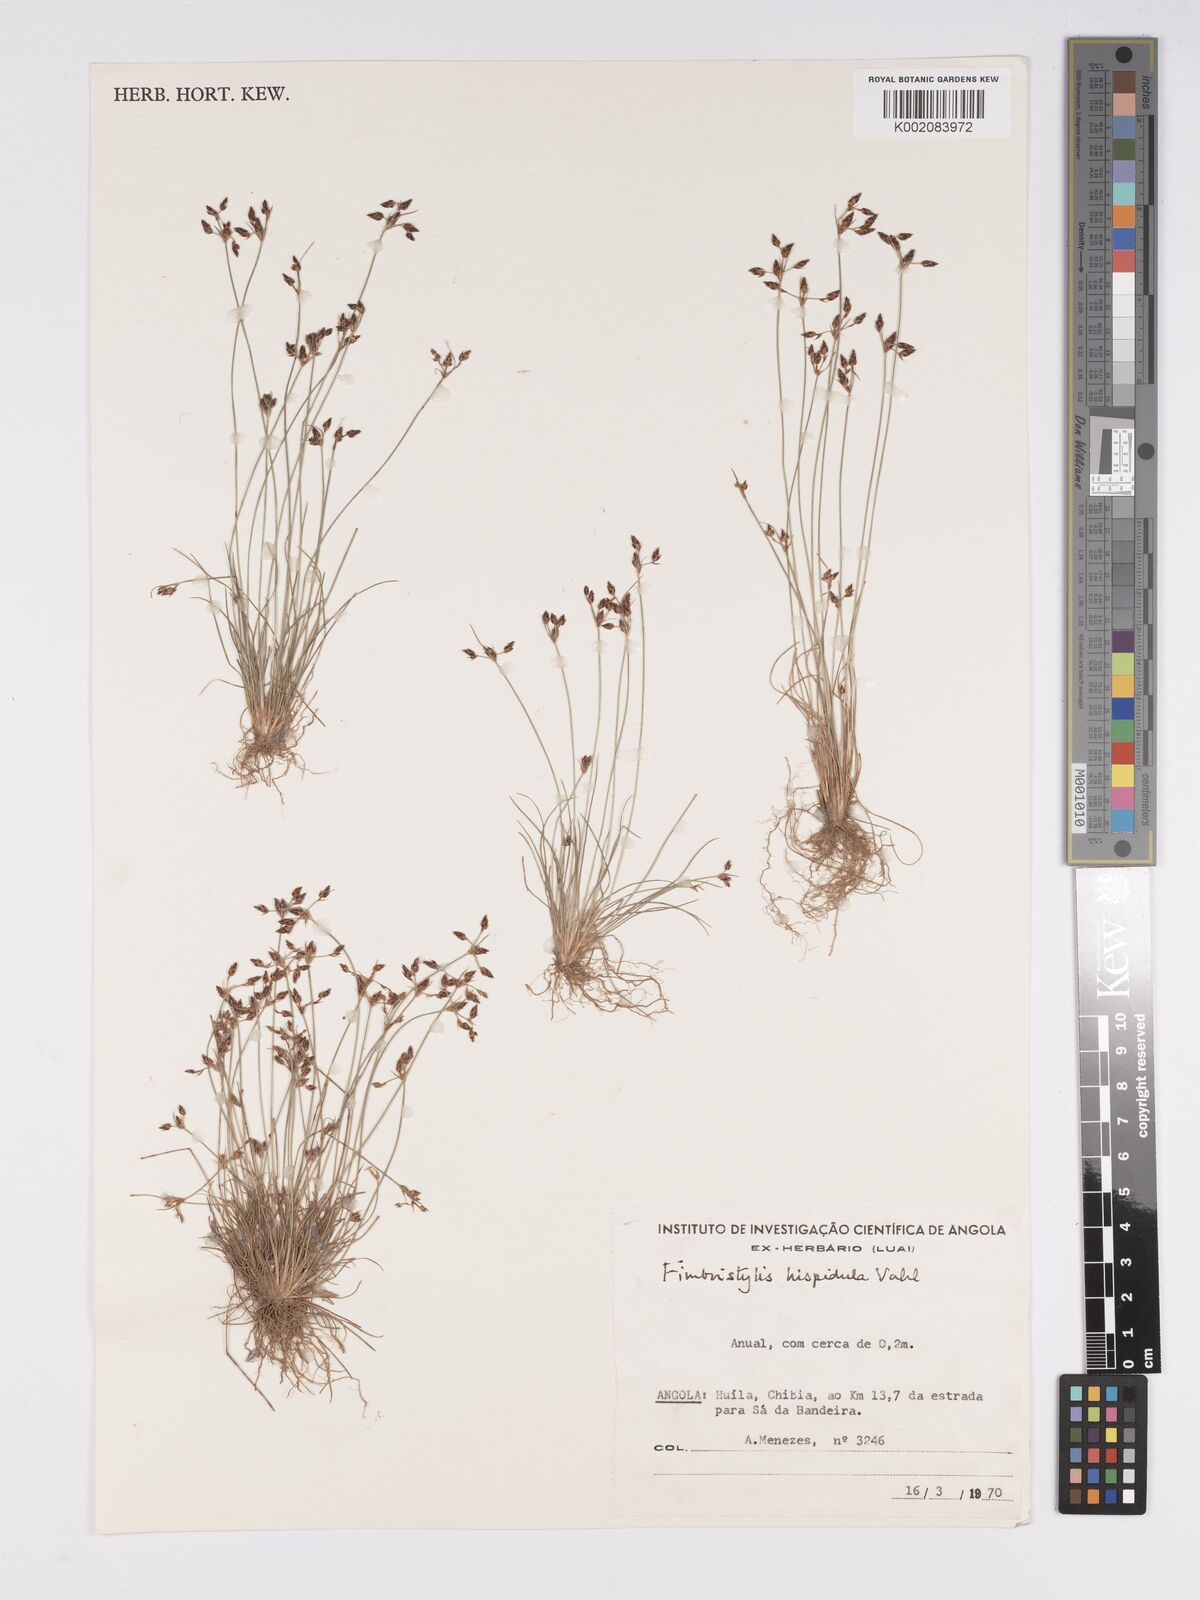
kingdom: Plantae
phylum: Tracheophyta
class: Liliopsida
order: Poales
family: Cyperaceae
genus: Bulbostylis
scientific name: Bulbostylis hispidula
